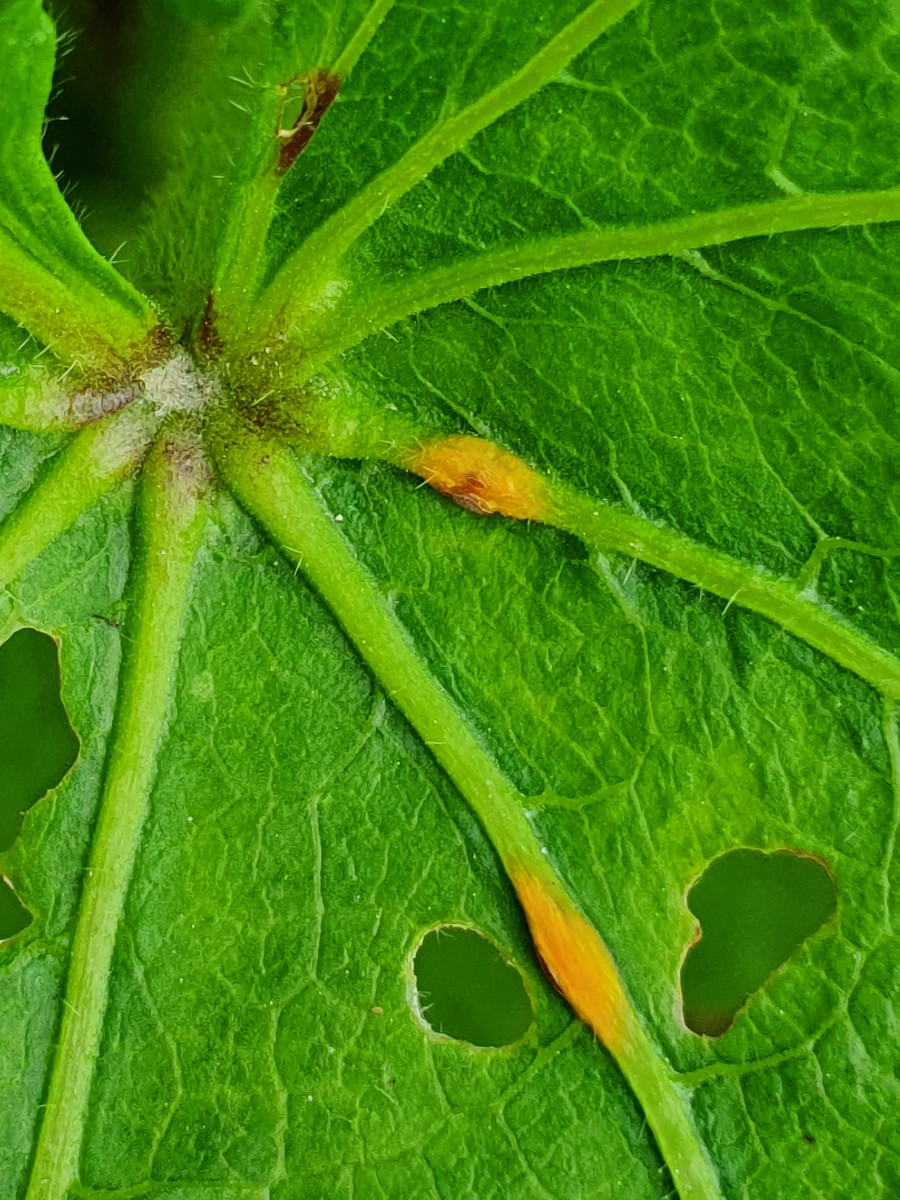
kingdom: Fungi
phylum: Basidiomycota
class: Pucciniomycetes
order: Pucciniales
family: Pucciniaceae
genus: Puccinia
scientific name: Puccinia malvacearum
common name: stokrose-tvecellerust
